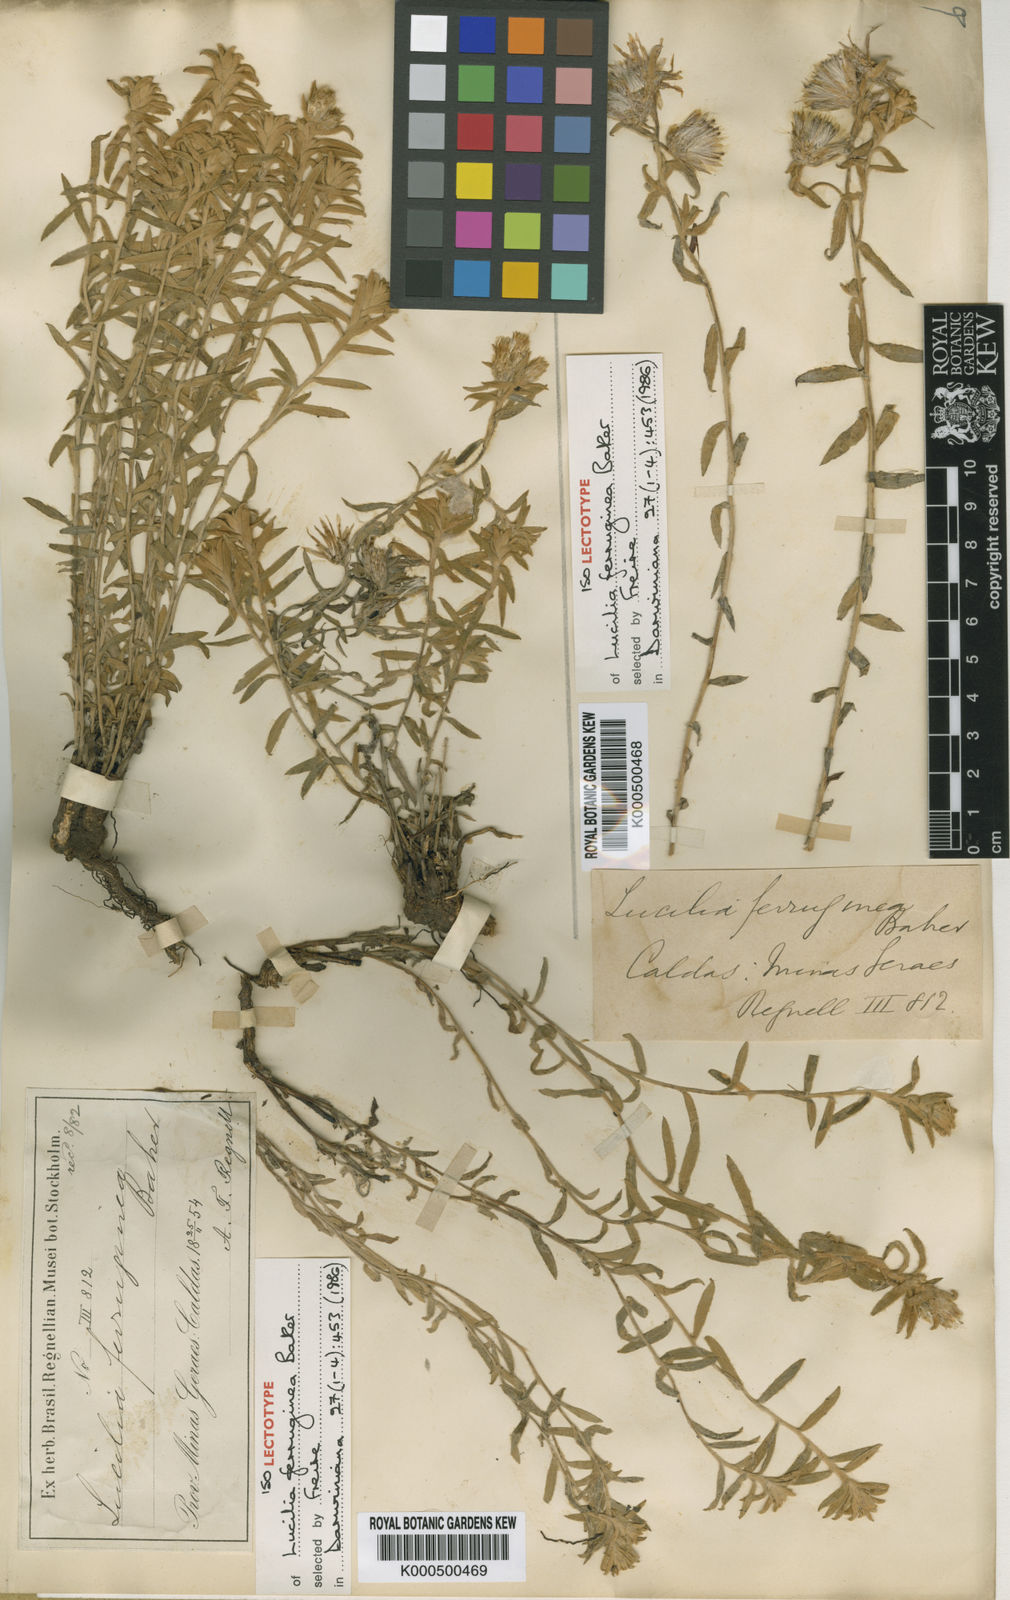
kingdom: Plantae
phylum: Tracheophyta
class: Magnoliopsida
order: Asterales
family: Asteraceae
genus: Lucilia
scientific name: Lucilia ferruginea
